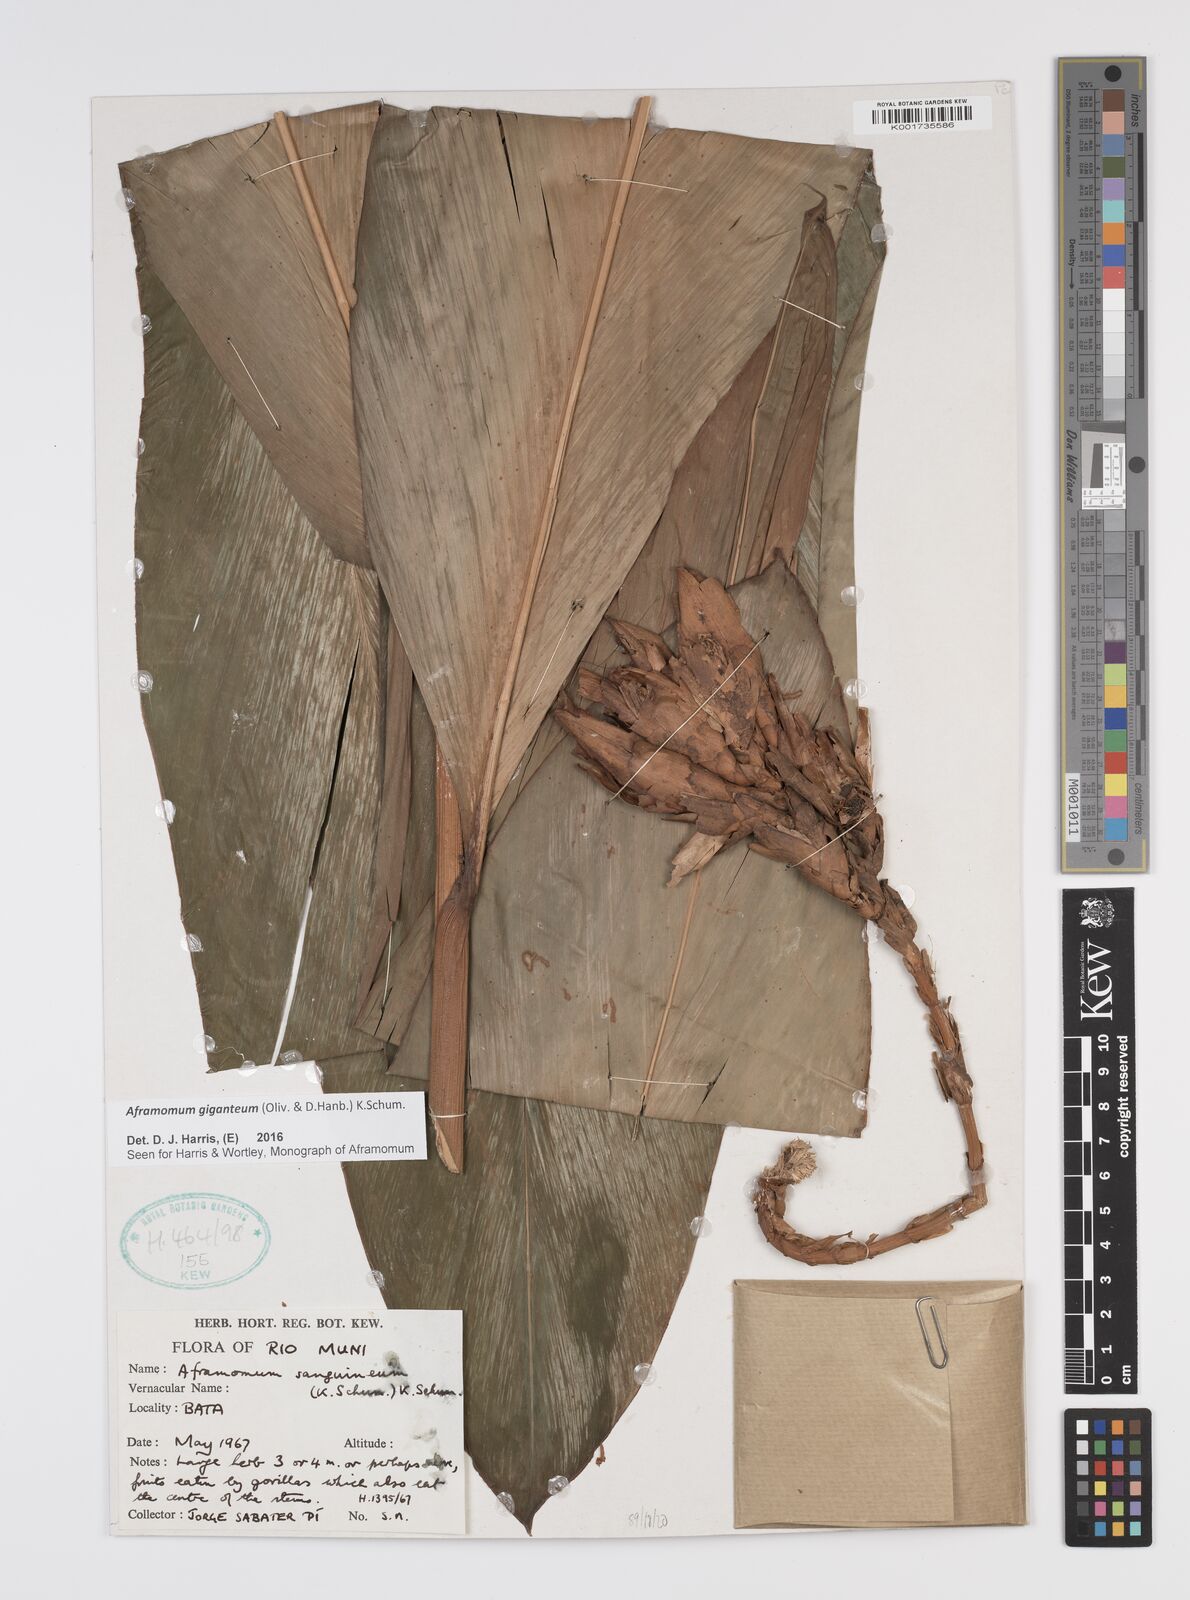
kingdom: Plantae
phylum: Tracheophyta
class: Liliopsida
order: Zingiberales
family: Zingiberaceae
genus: Aframomum
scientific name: Aframomum giganteum
